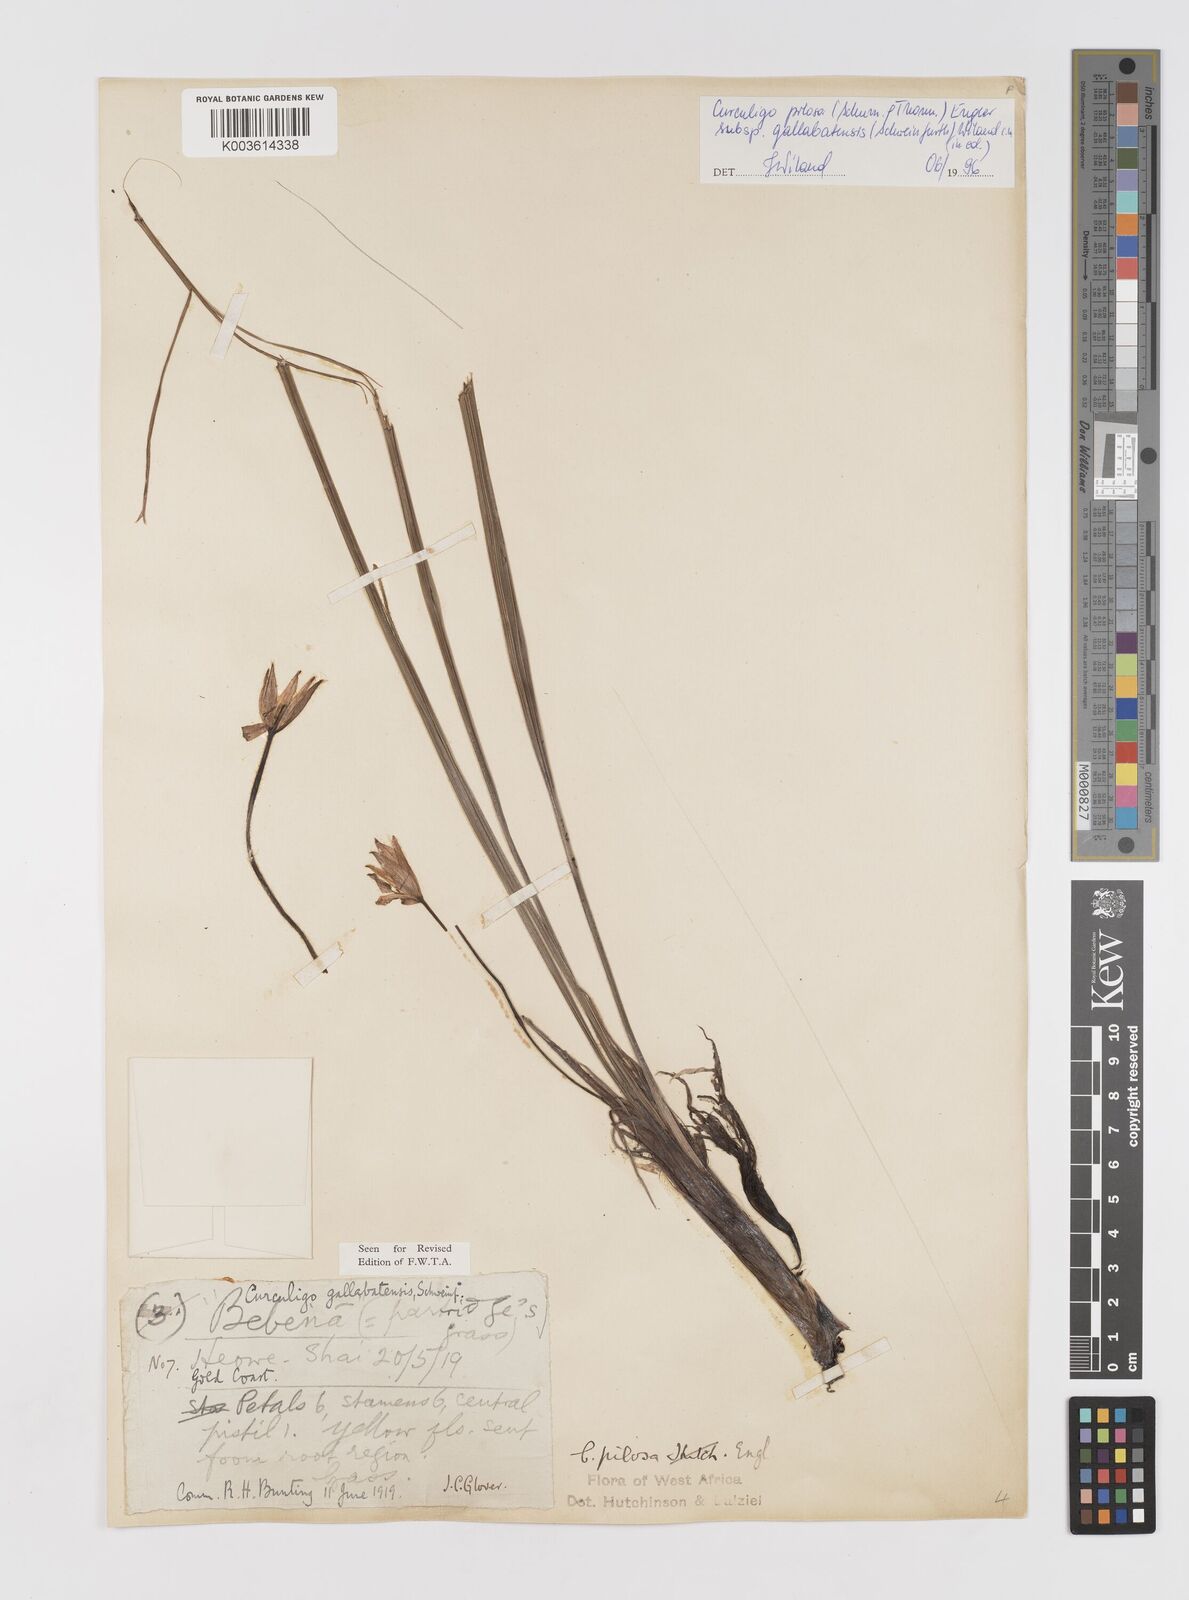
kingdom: Plantae
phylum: Tracheophyta
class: Liliopsida
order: Asparagales
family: Hypoxidaceae
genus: Curculigo
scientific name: Curculigo pilosa
